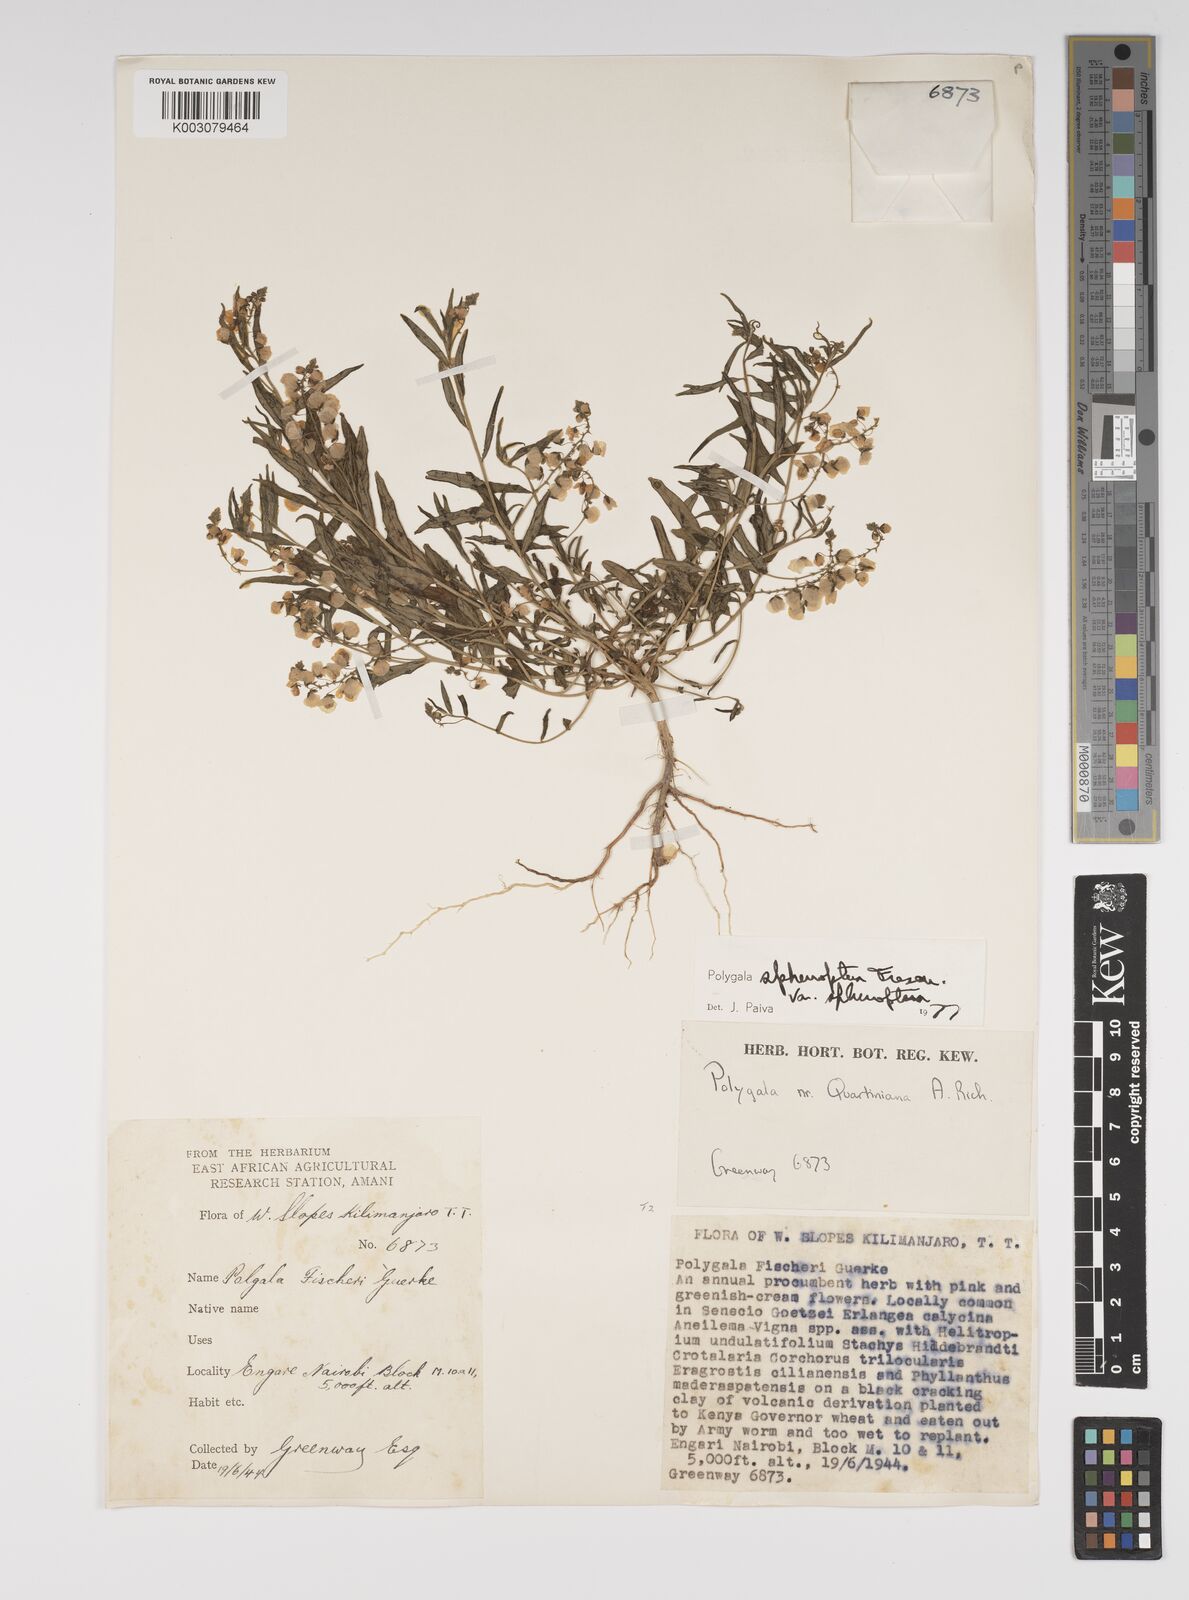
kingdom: Plantae
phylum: Tracheophyta
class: Magnoliopsida
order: Fabales
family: Polygalaceae
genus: Polygala
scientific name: Polygala sphenoptera
